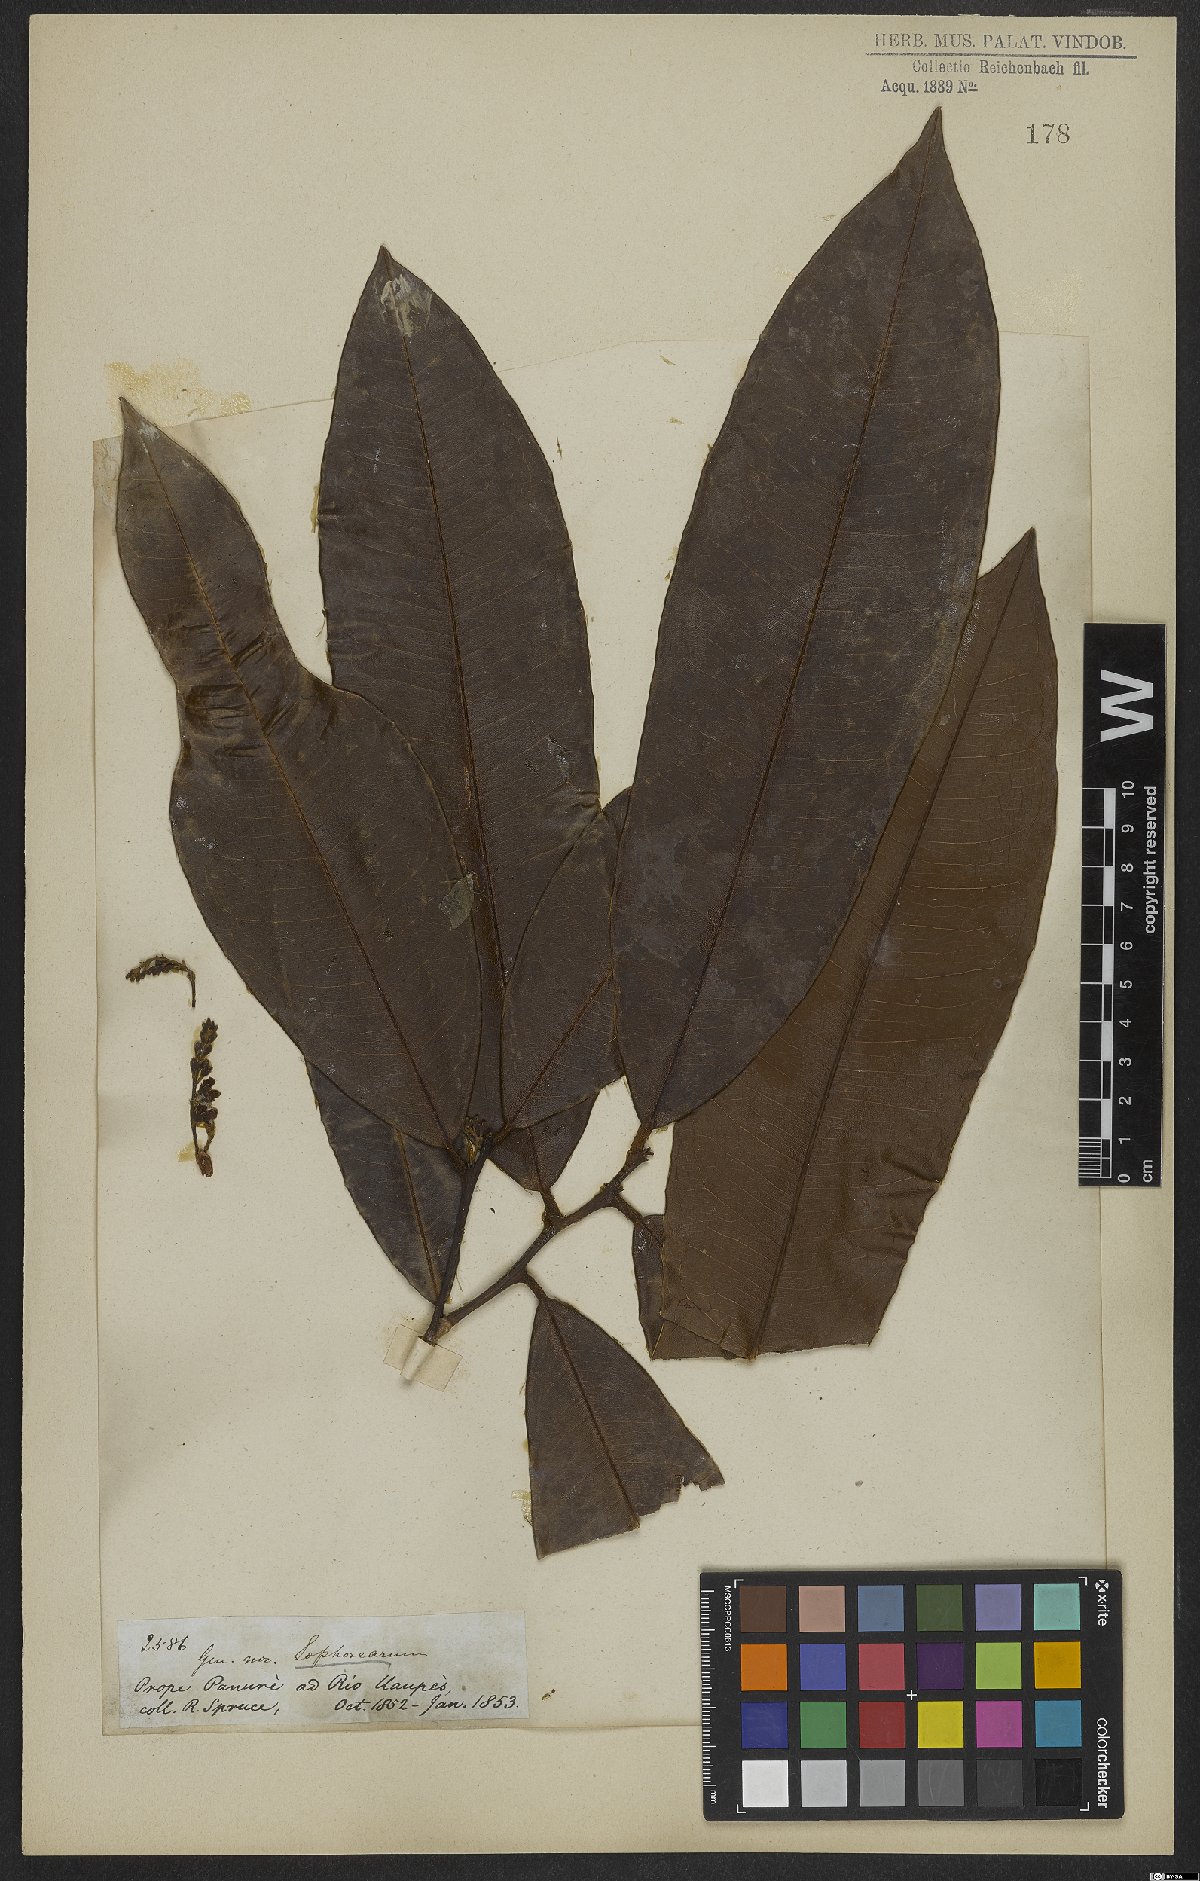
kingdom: Plantae
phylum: Tracheophyta
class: Magnoliopsida
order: Fabales
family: Fabaceae
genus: Sophora
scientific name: Sophora
